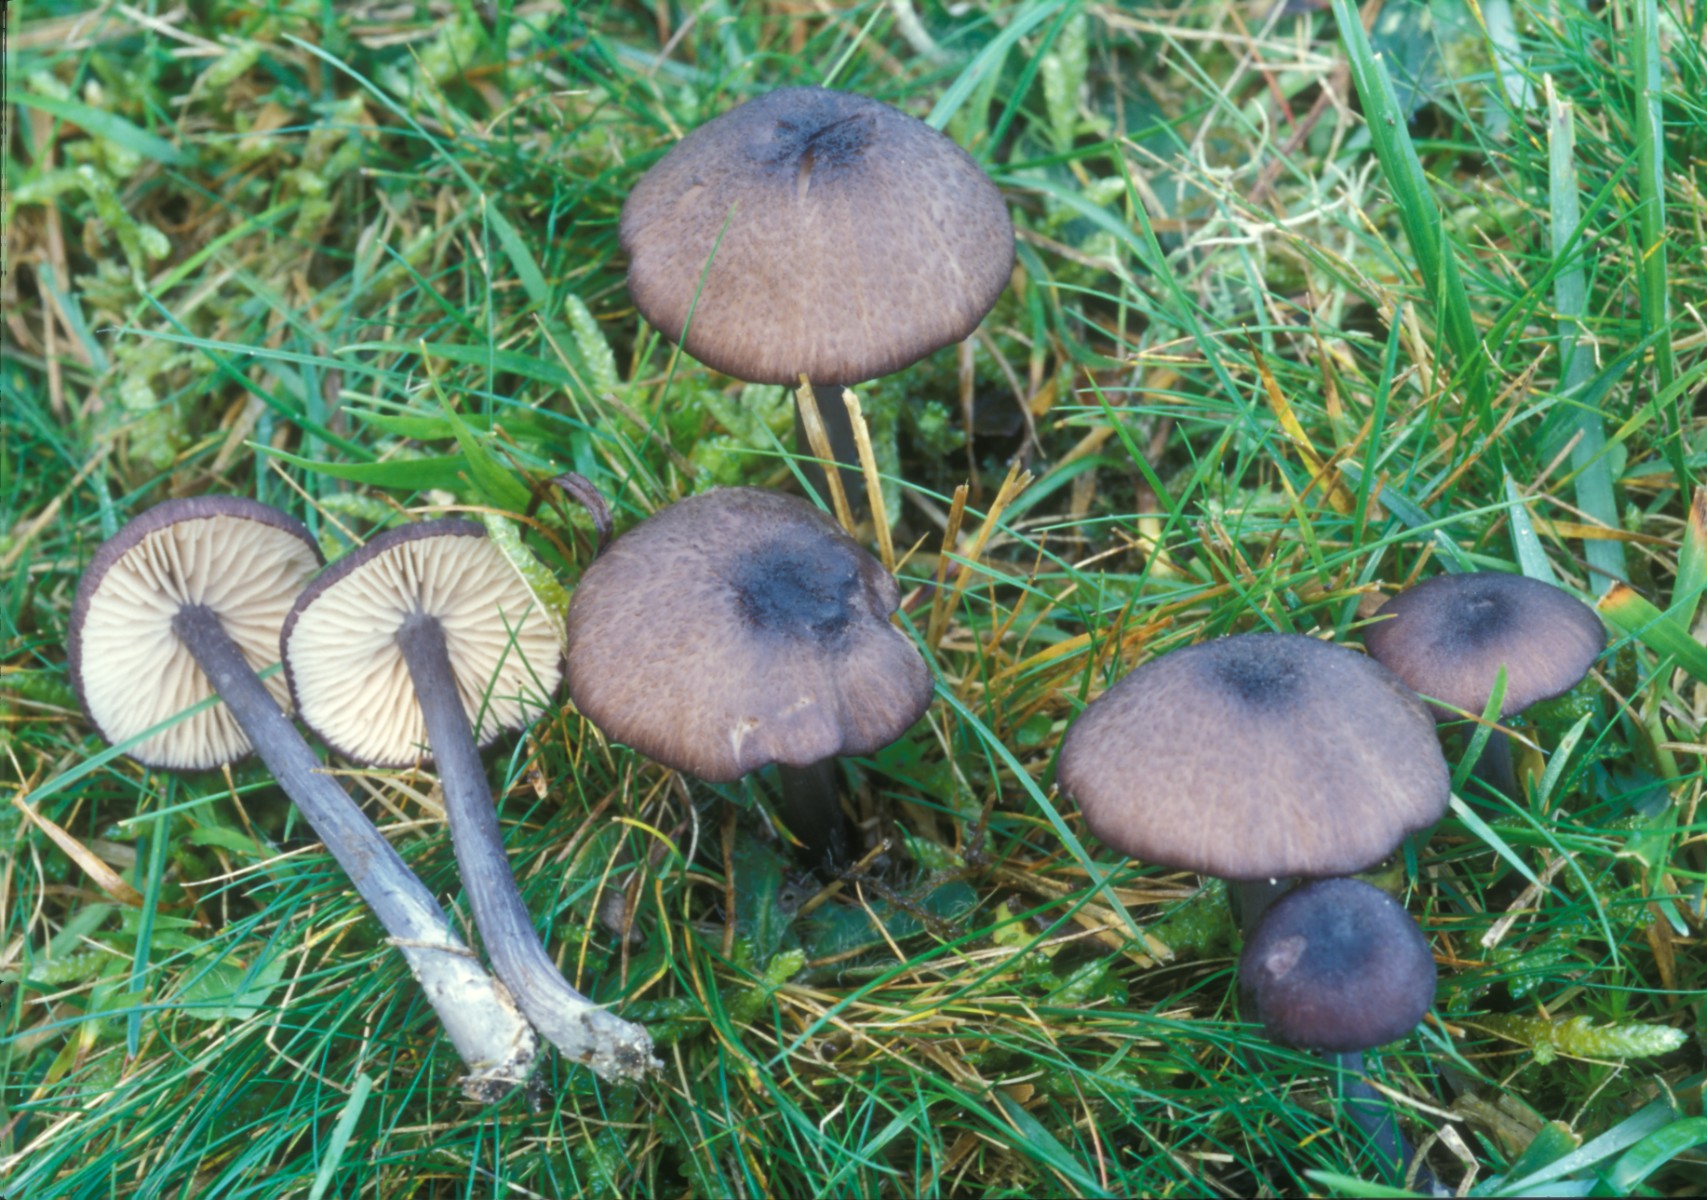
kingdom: Fungi
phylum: Basidiomycota
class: Agaricomycetes
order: Agaricales
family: Entolomataceae
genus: Entoloma
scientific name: Entoloma viiduense
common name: purpurbrun rødblad
